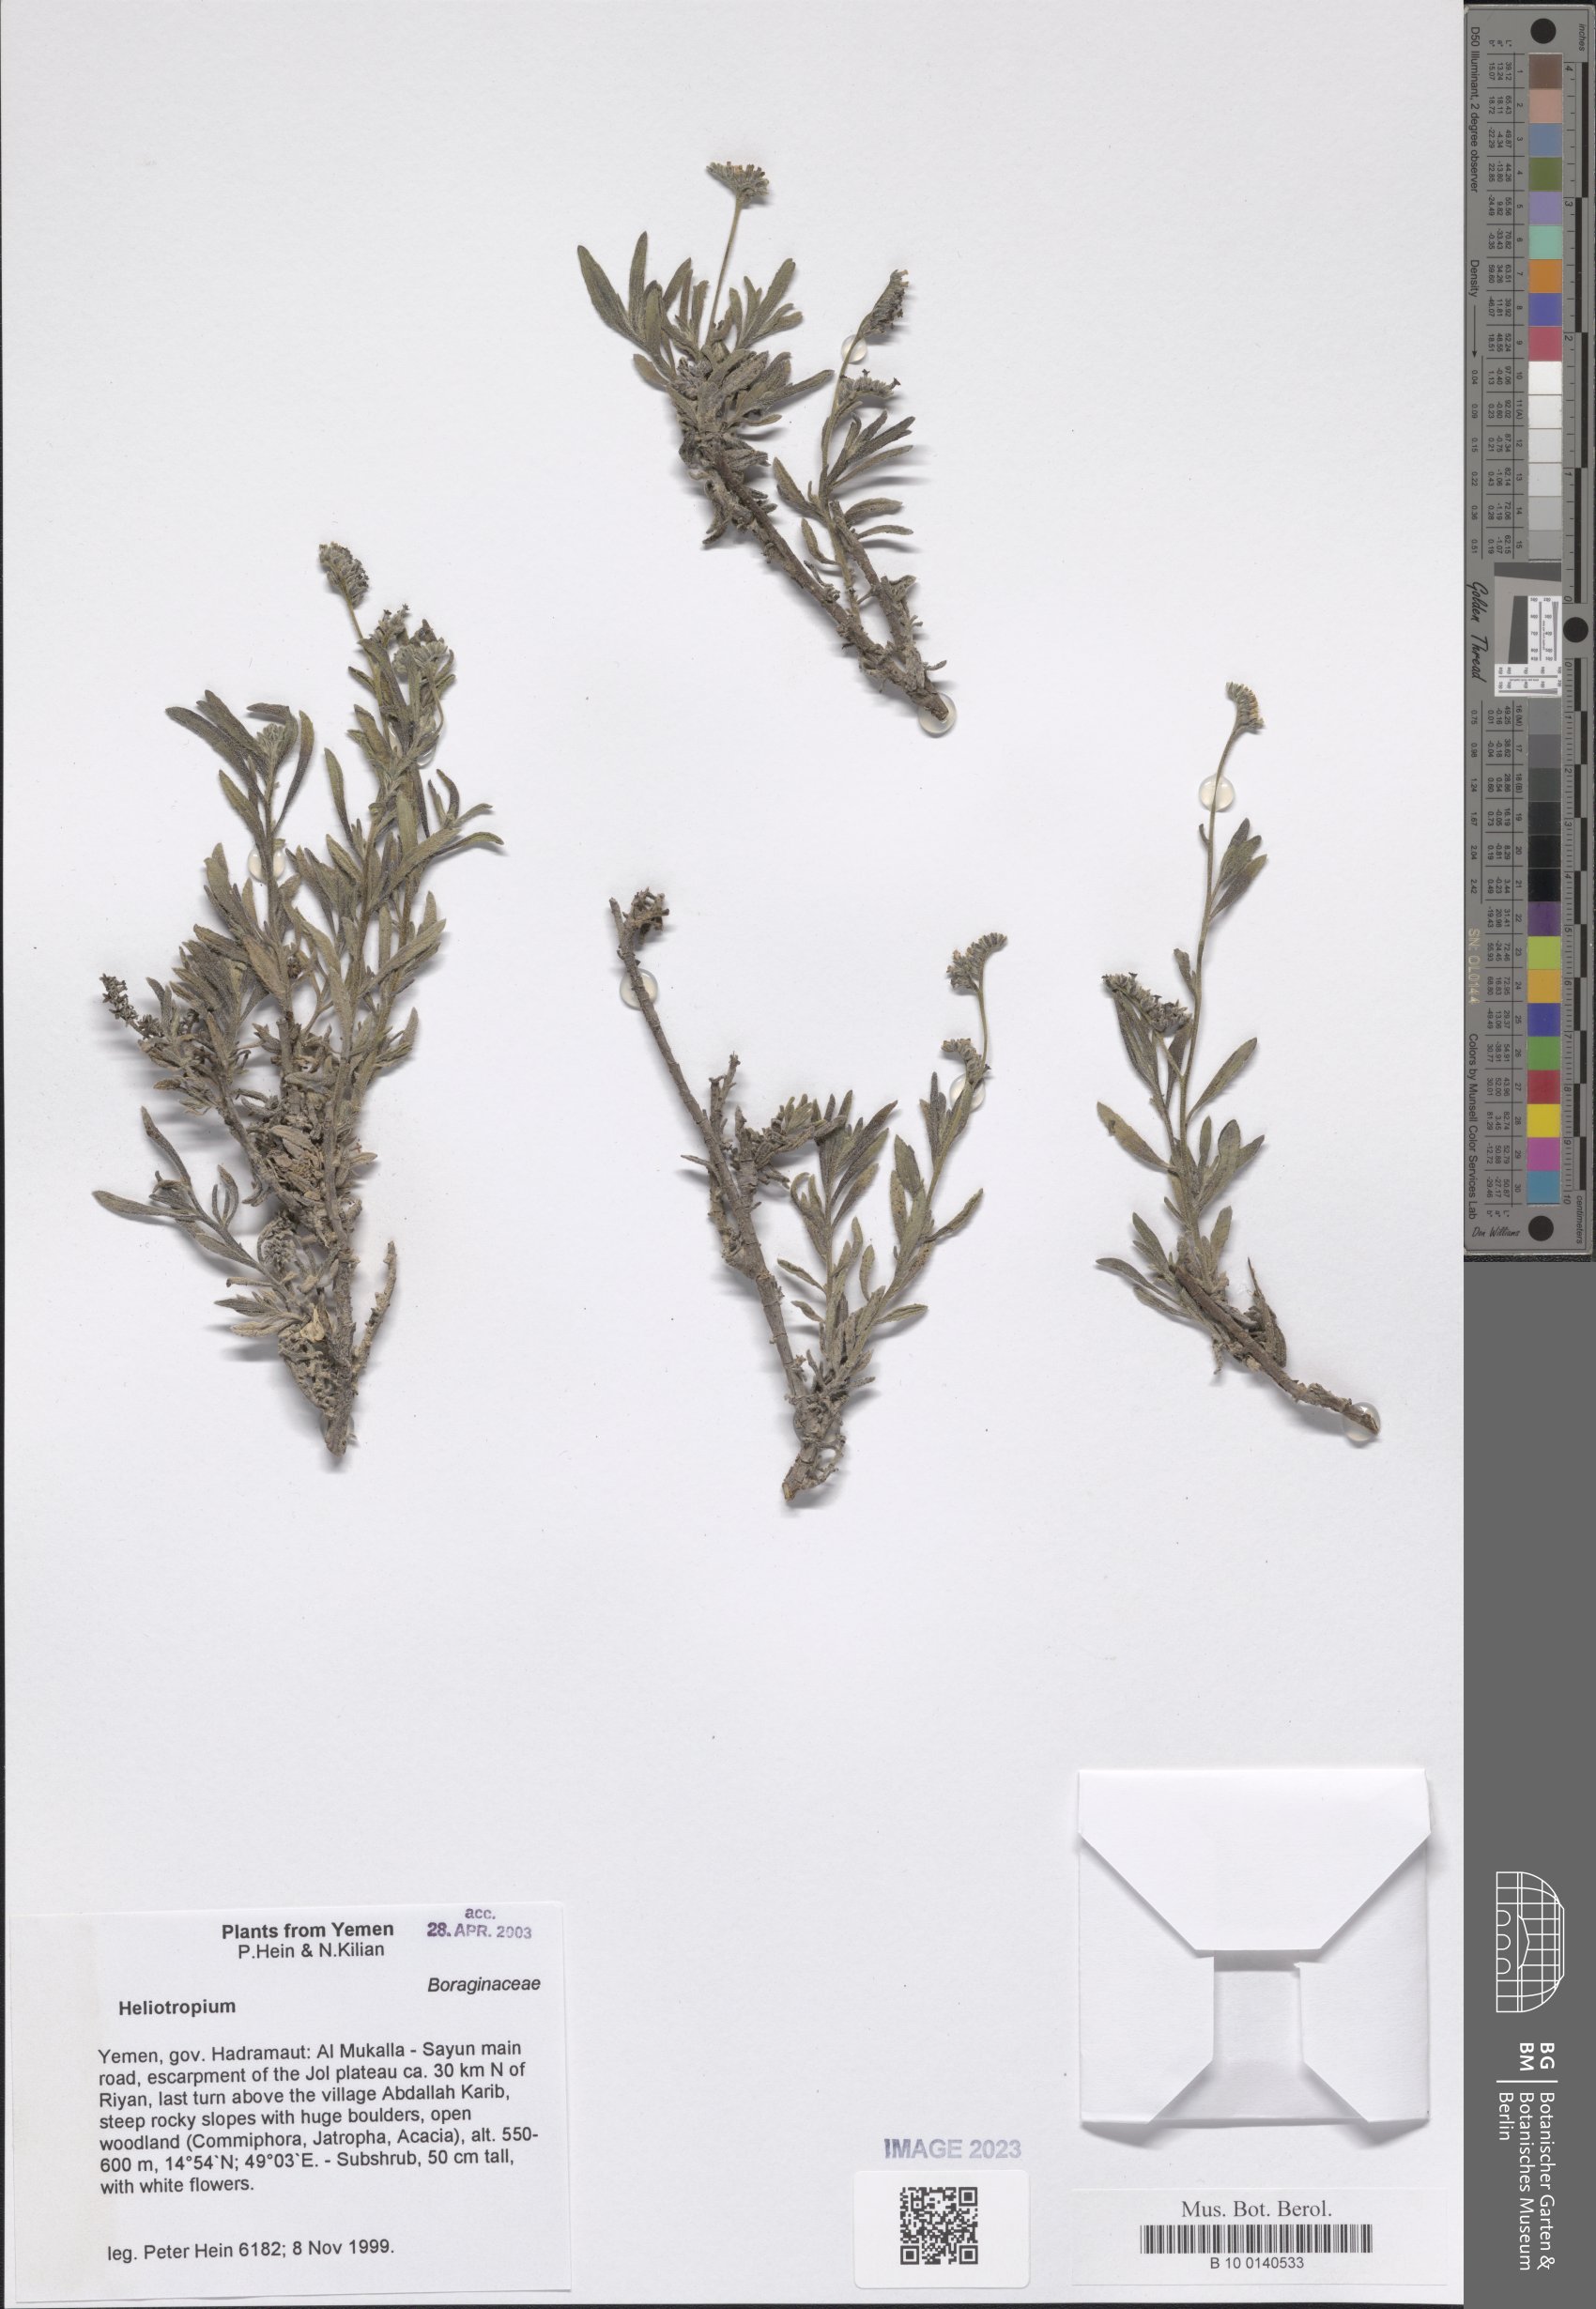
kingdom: Plantae
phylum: Tracheophyta
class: Magnoliopsida
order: Boraginales
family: Heliotropiaceae
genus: Heliotropium
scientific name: Heliotropium
